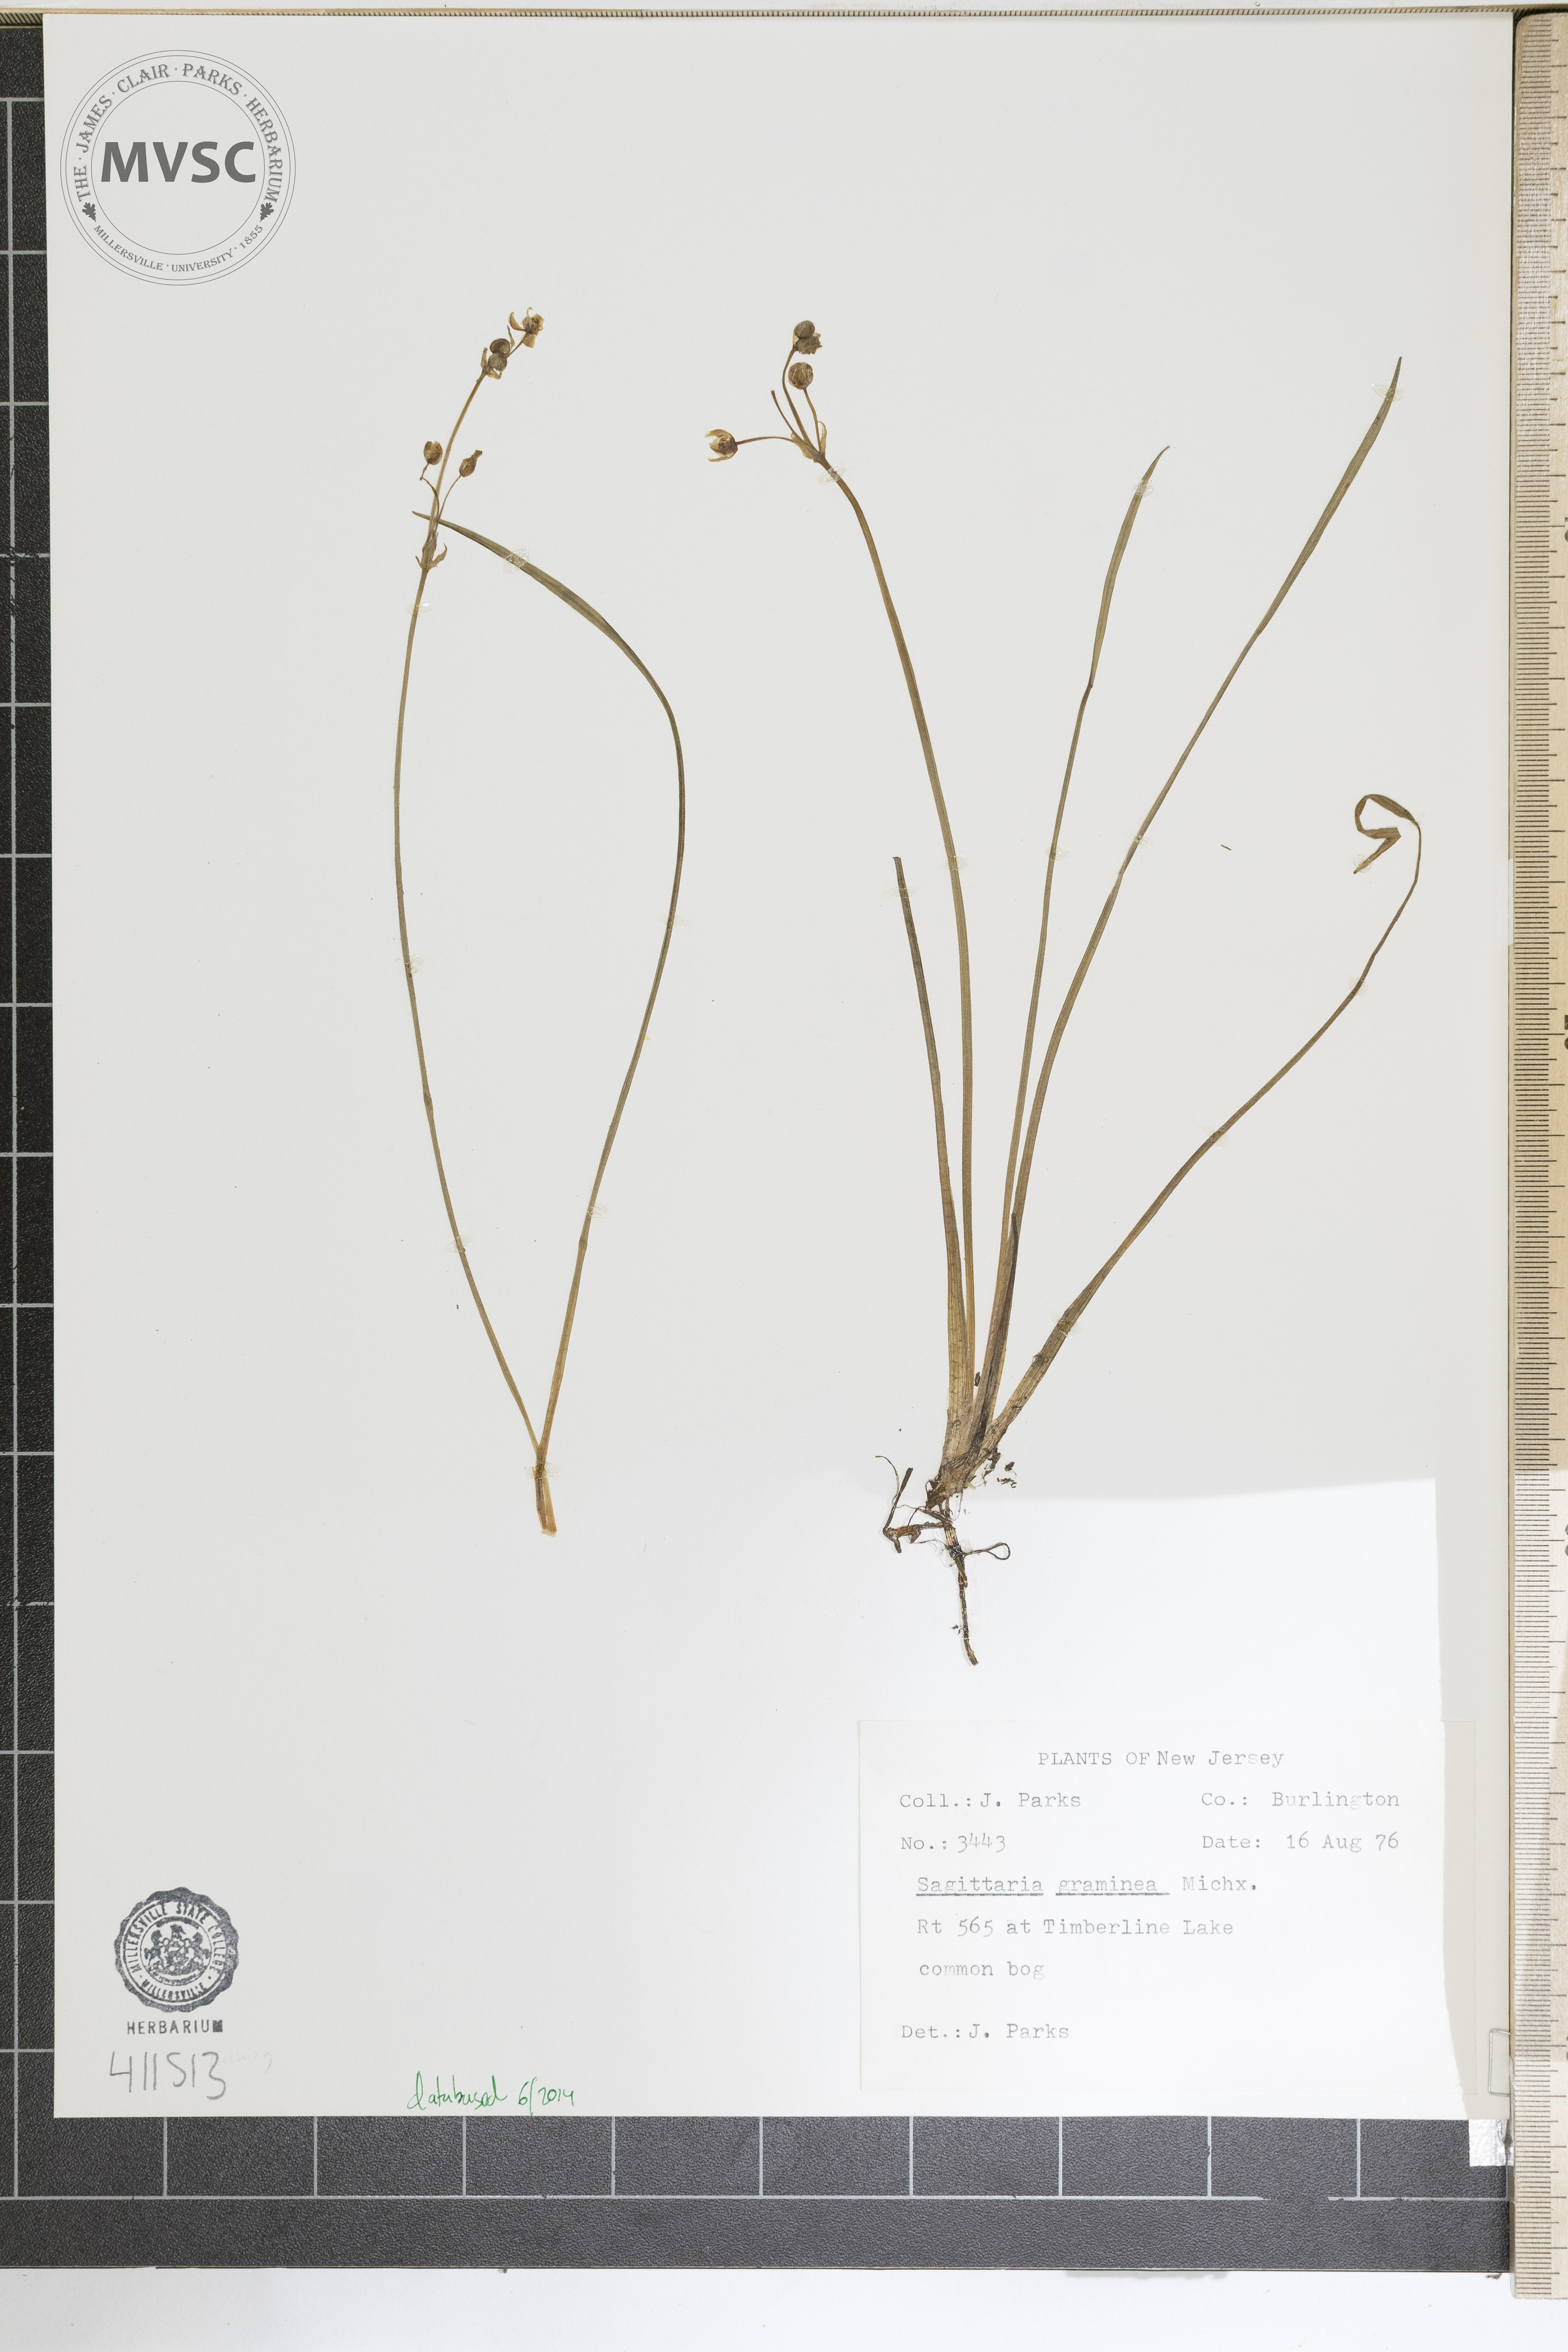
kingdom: Plantae
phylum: Tracheophyta
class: Liliopsida
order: Alismatales
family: Alismataceae
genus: Sagittaria
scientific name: Sagittaria graminea
